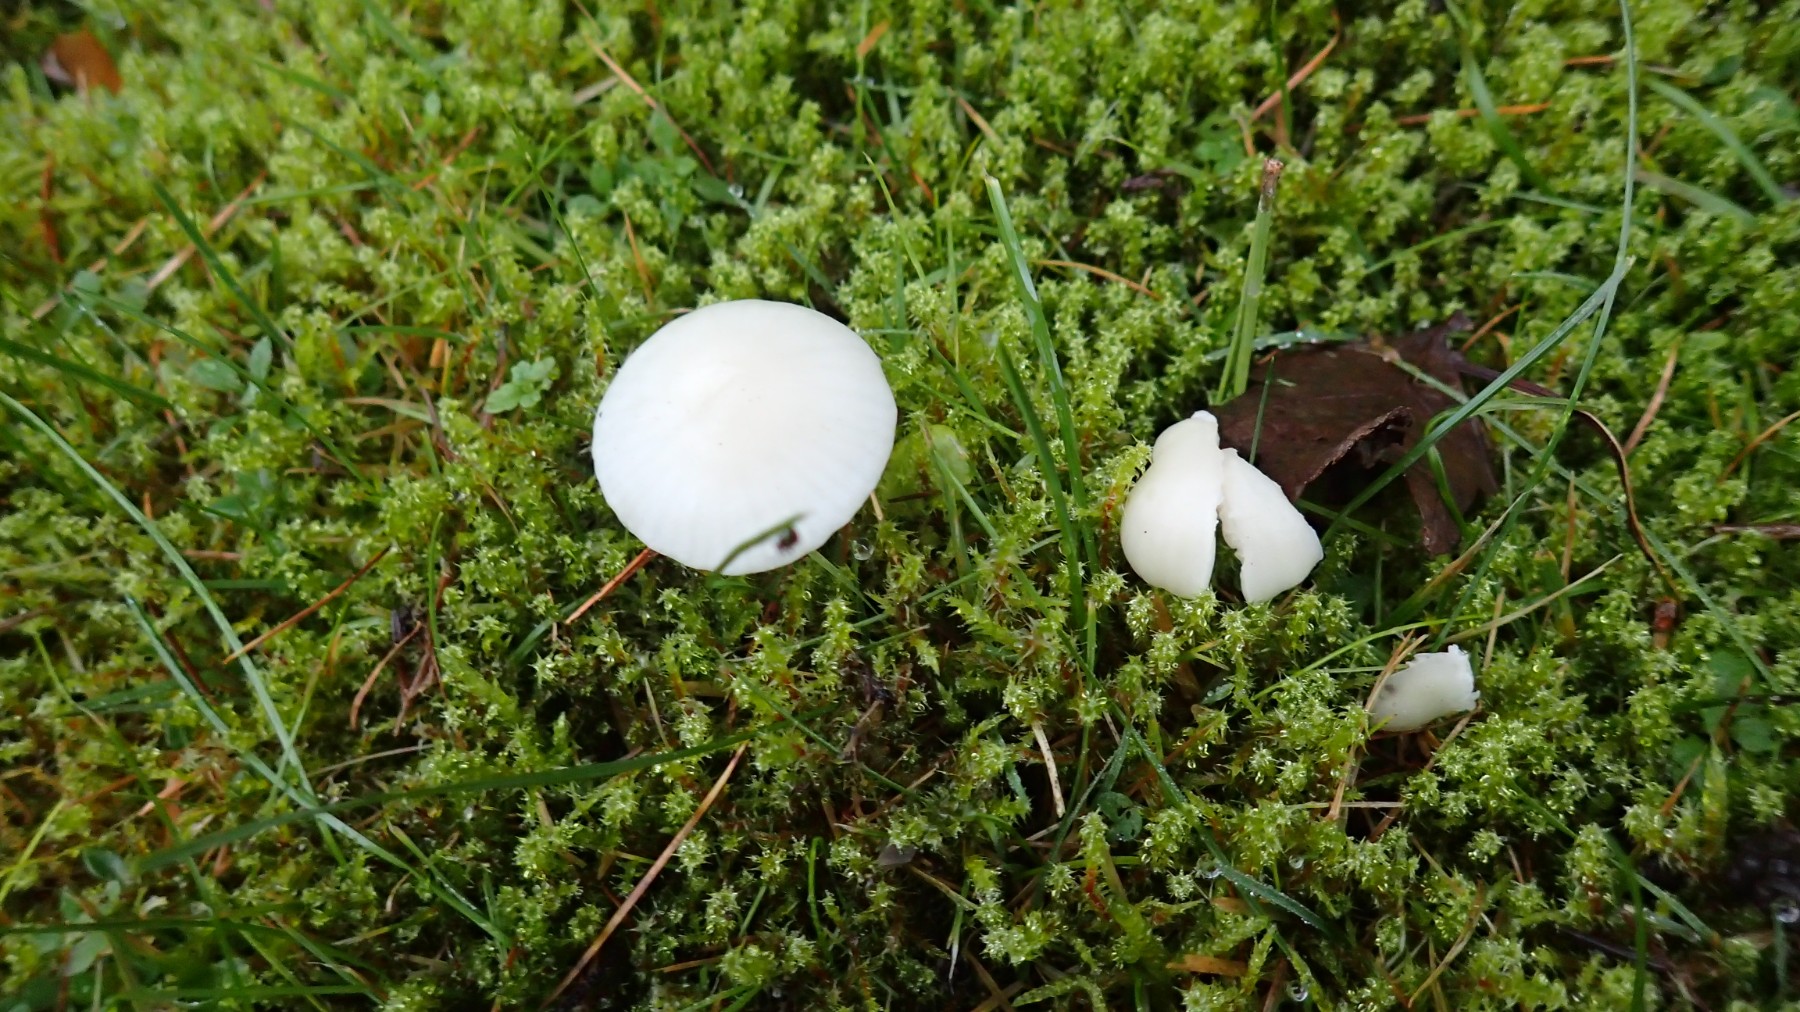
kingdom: Fungi
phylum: Basidiomycota
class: Agaricomycetes
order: Agaricales
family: Hygrophoraceae
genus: Cuphophyllus
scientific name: Cuphophyllus virgineus
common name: snehvid vokshat
